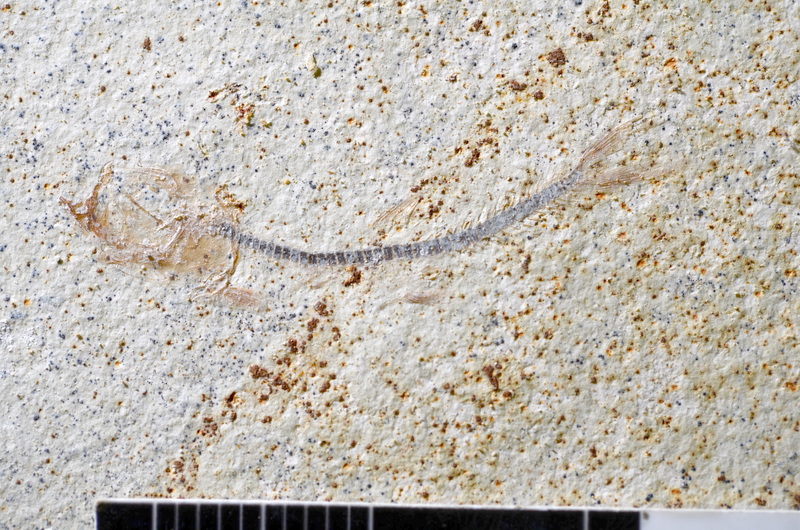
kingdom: Animalia
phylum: Chordata
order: Salmoniformes
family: Orthogonikleithridae
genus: Orthogonikleithrus
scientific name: Orthogonikleithrus hoelli
